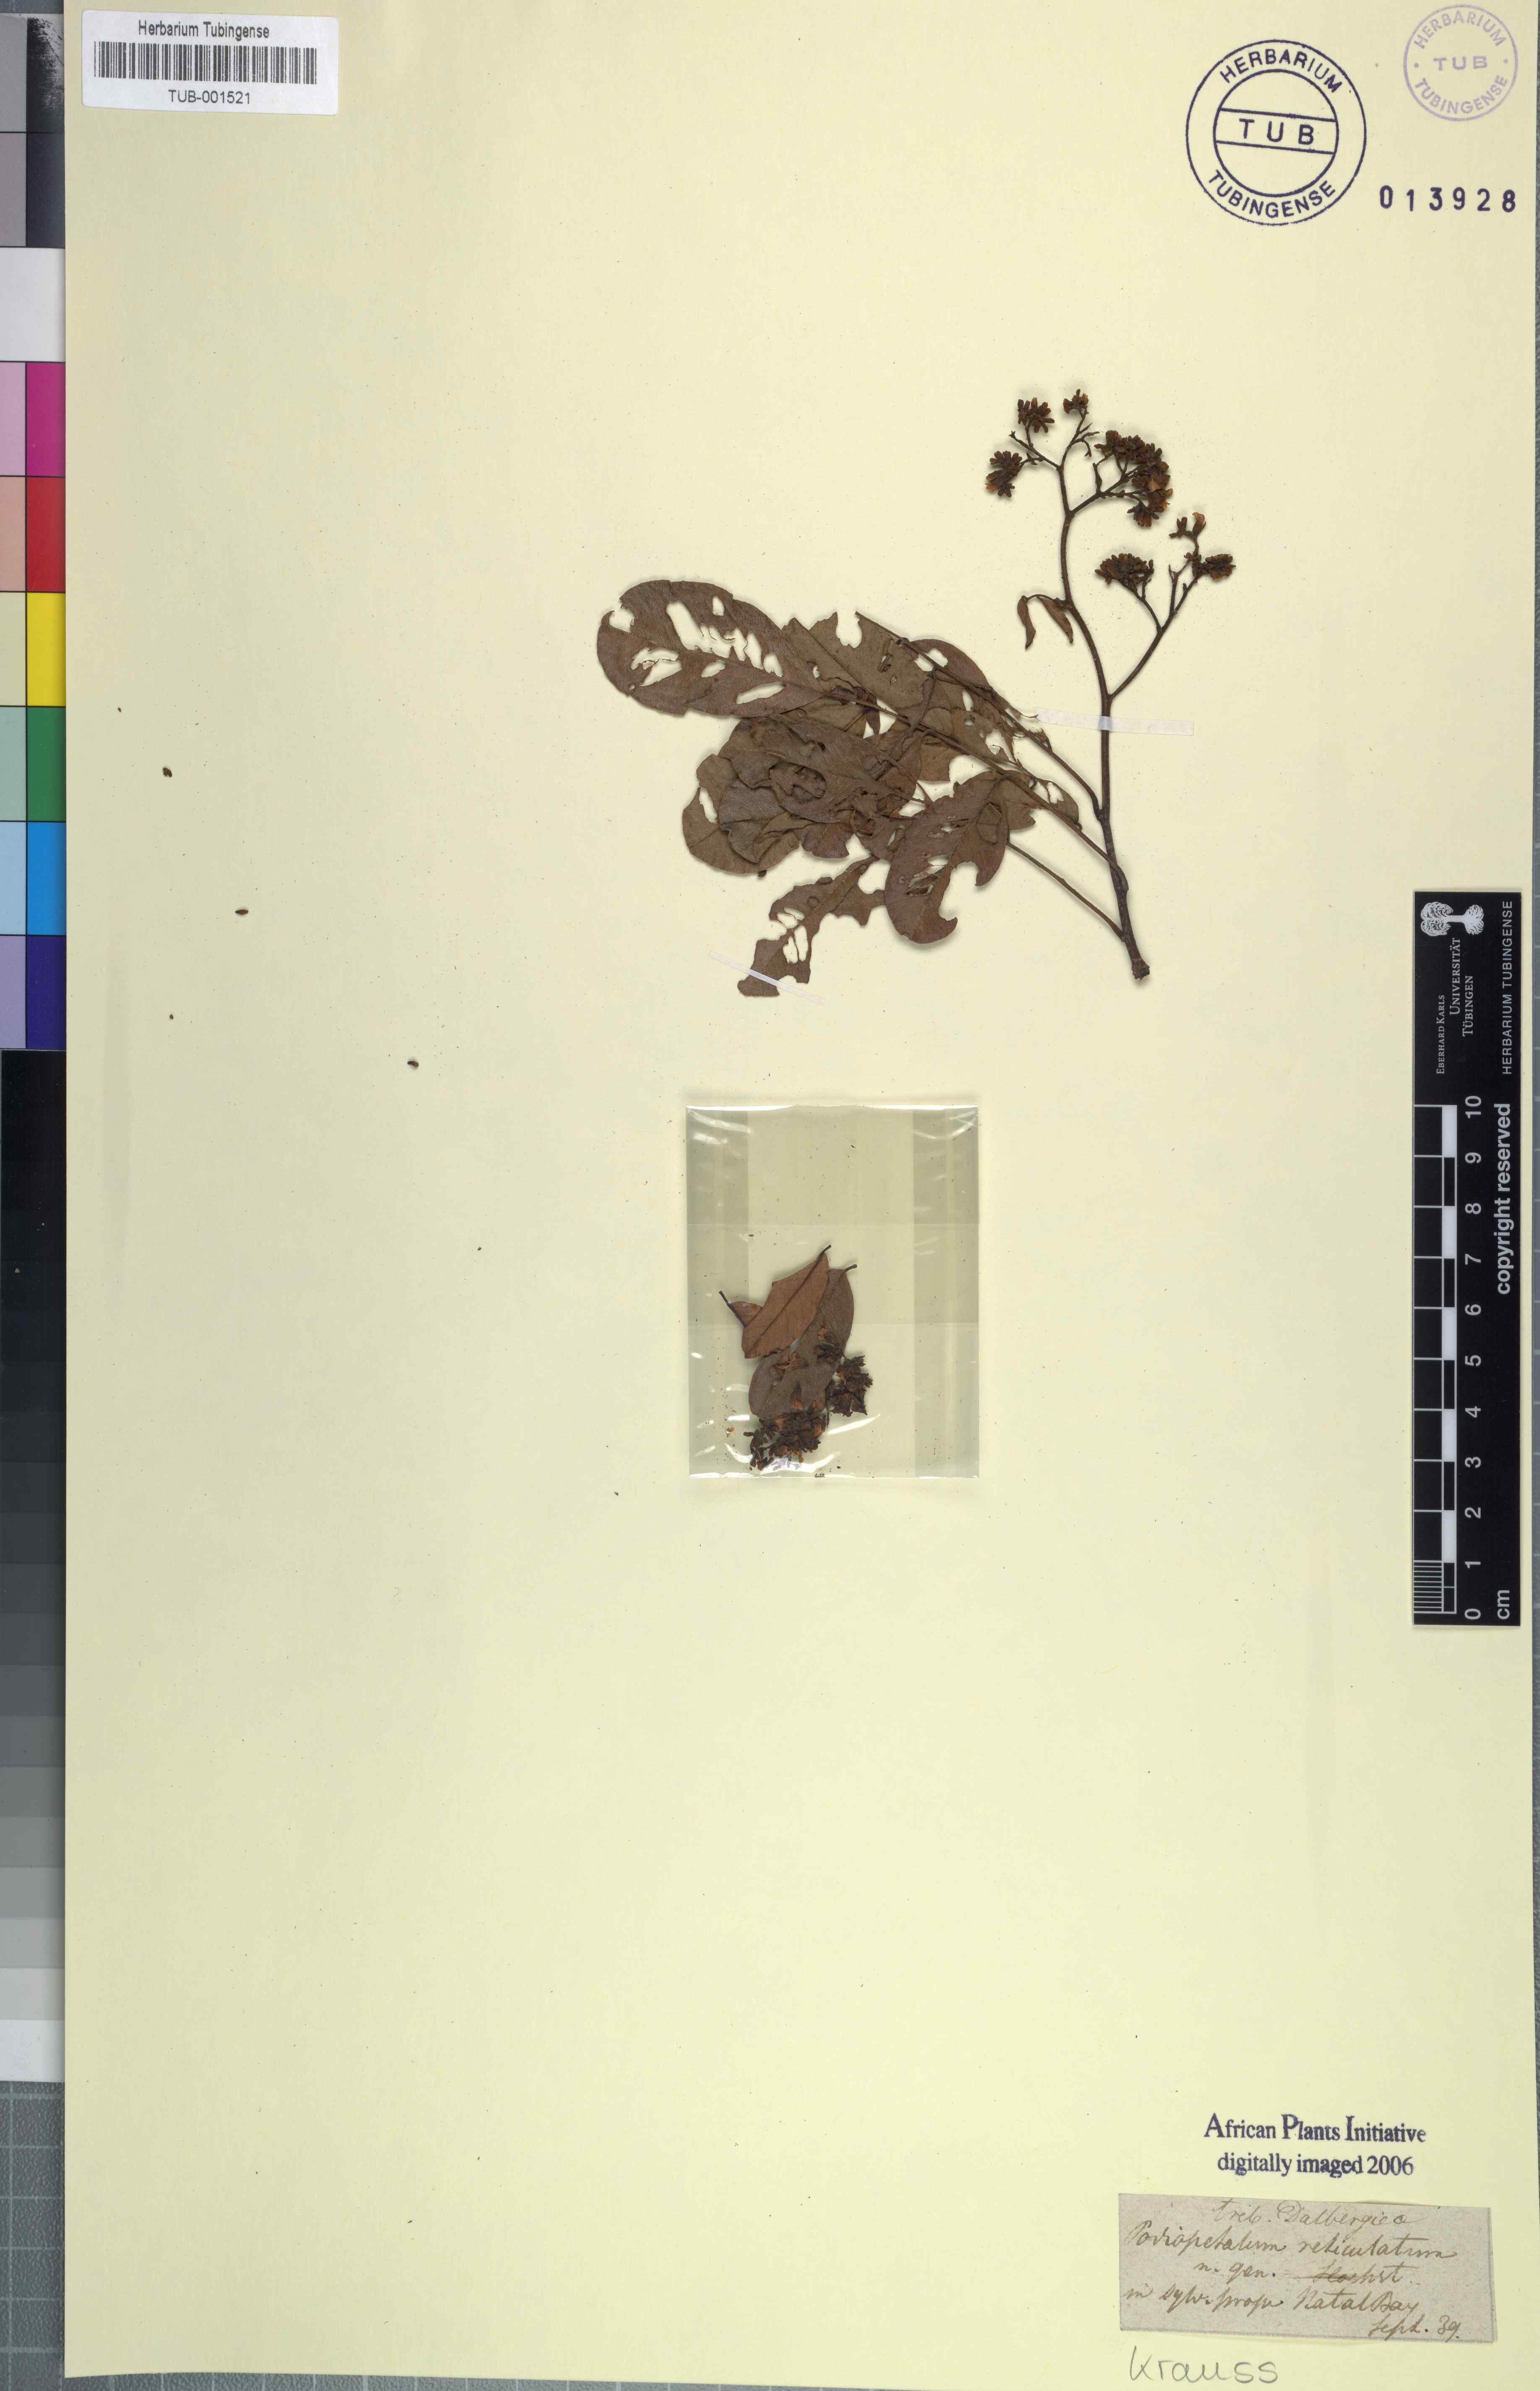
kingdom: Plantae
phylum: Tracheophyta
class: Magnoliopsida
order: Fabales
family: Fabaceae
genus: Dalbergia
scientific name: Dalbergia obovata
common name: Climbing flat-bean
